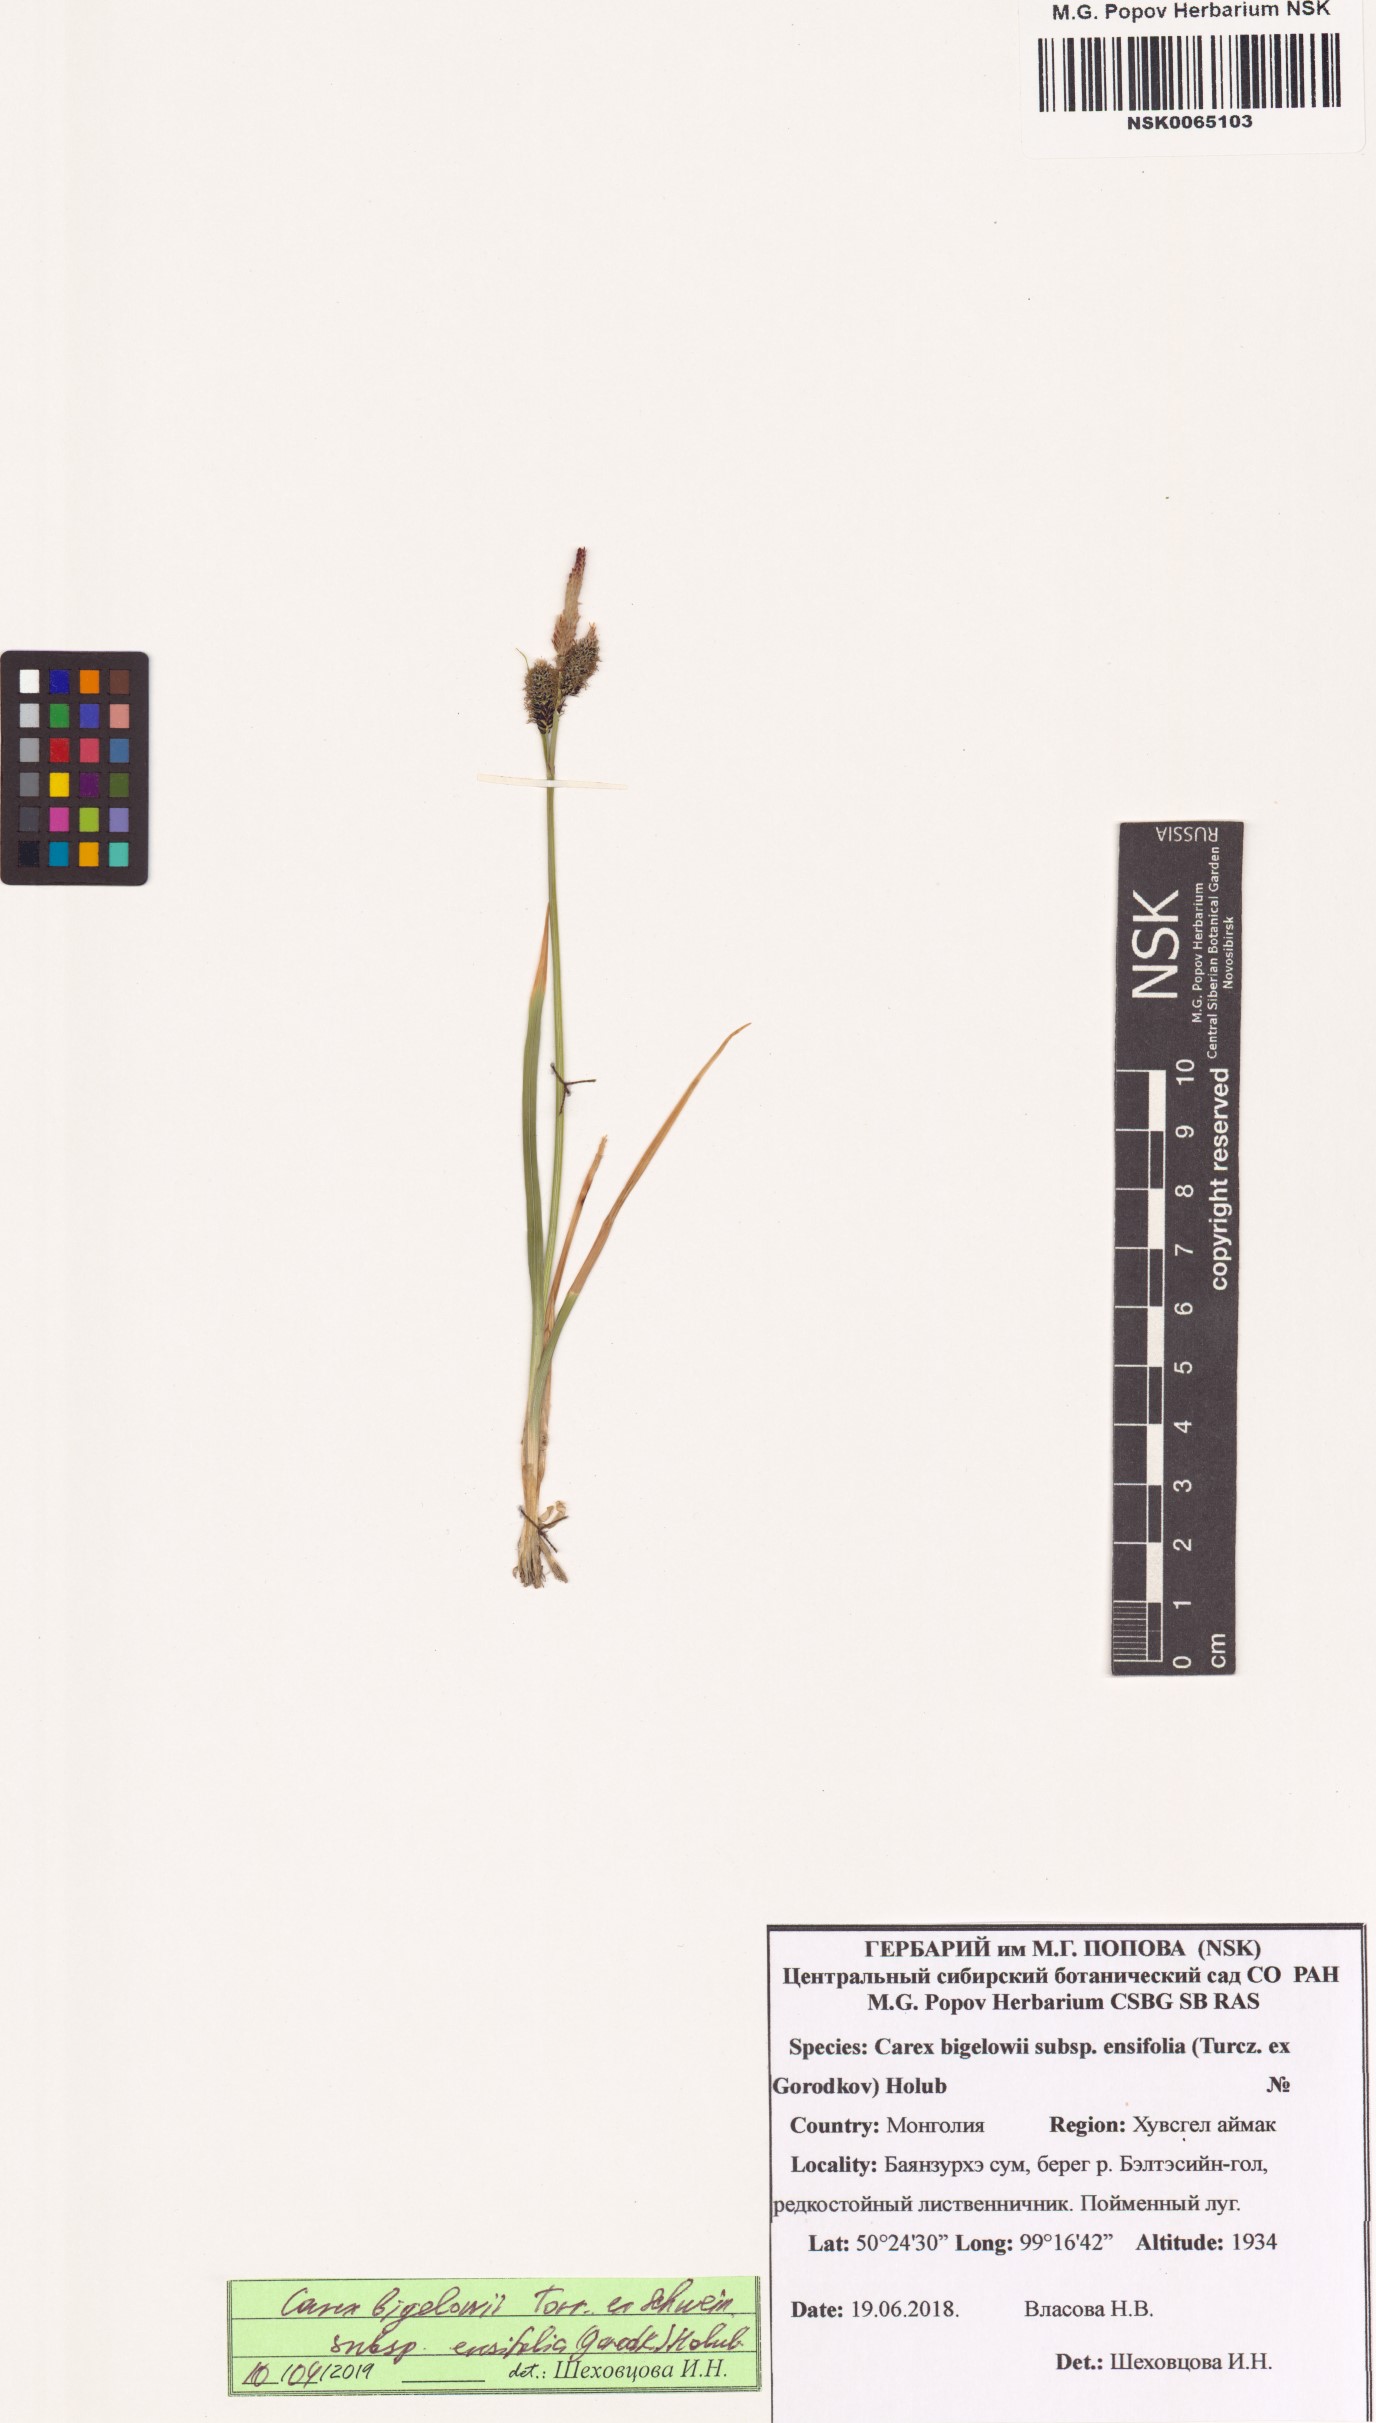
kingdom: Plantae
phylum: Tracheophyta
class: Liliopsida
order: Poales
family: Cyperaceae
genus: Carex
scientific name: Carex bigelowii
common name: Stiff sedge
